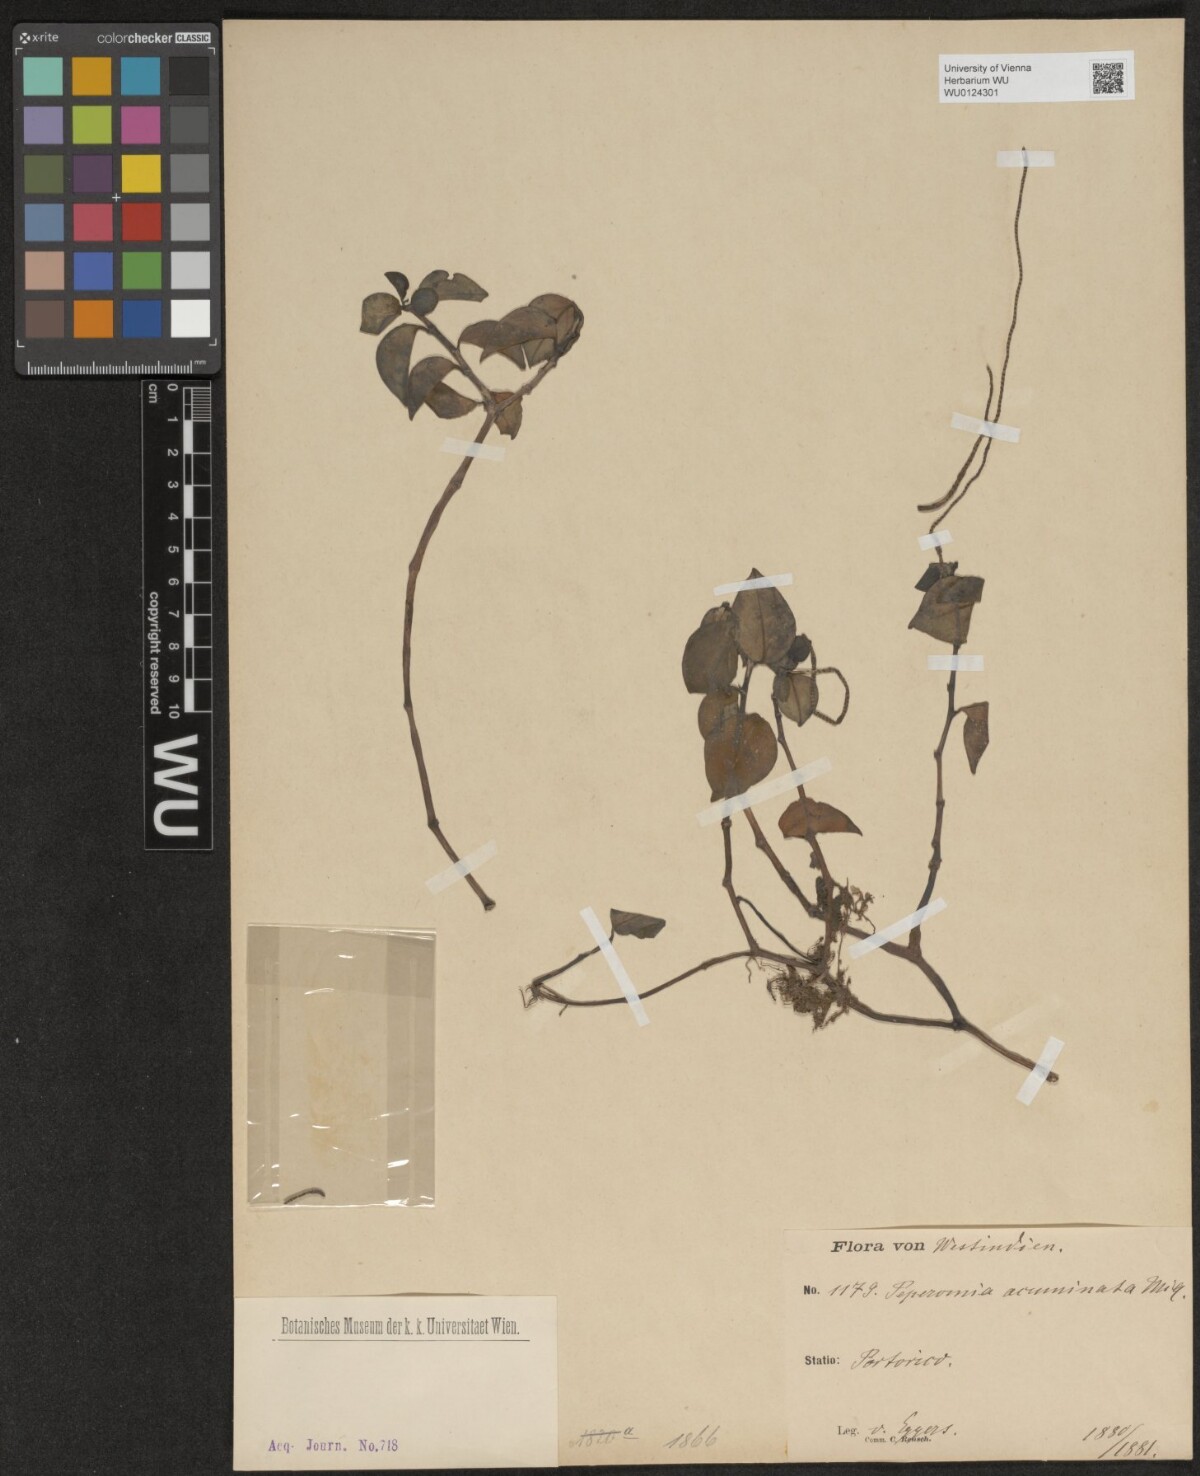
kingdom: Plantae
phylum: Tracheophyta
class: Magnoliopsida
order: Piperales
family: Piperaceae
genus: Peperomia
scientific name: Peperomia acuminata
